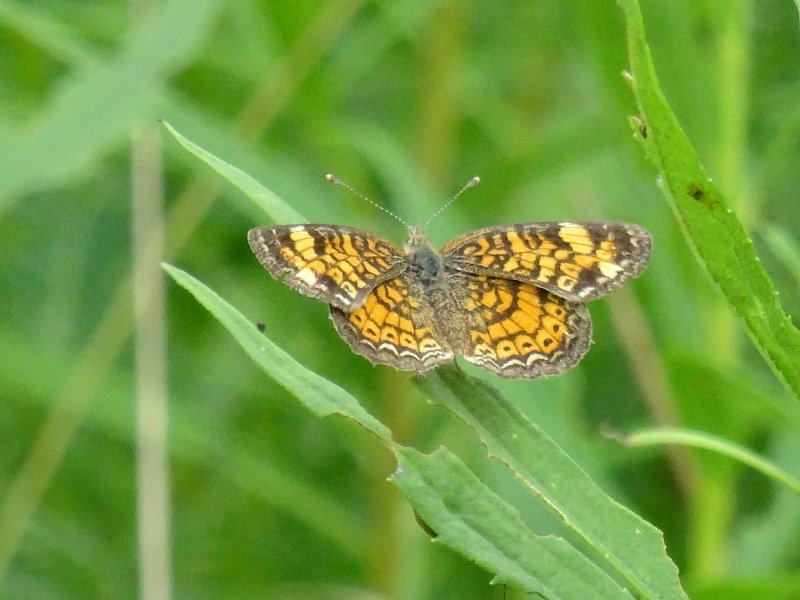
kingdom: Animalia
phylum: Arthropoda
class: Insecta
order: Lepidoptera
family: Nymphalidae
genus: Phyciodes
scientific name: Phyciodes tharos
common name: Northern Crescent
